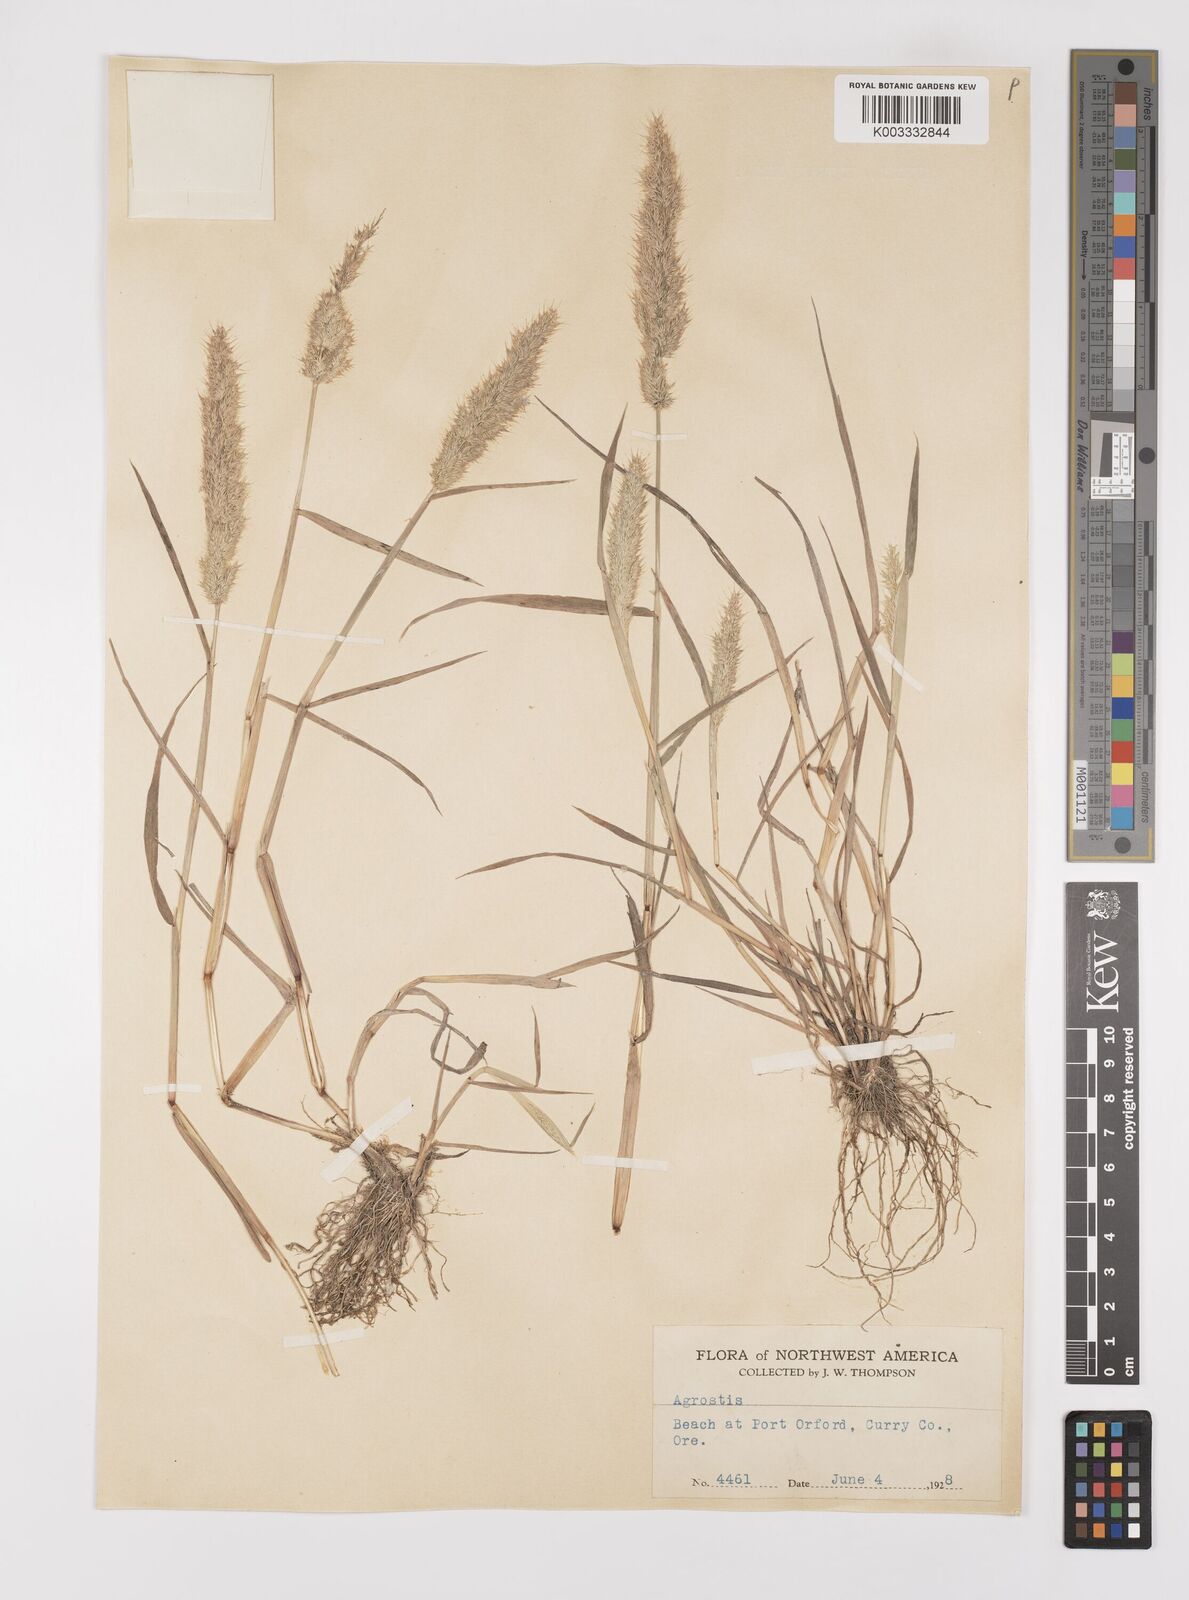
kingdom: Plantae
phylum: Tracheophyta
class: Liliopsida
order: Poales
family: Poaceae
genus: Polypogon
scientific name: Polypogon interruptus
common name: Ditch polypogon
